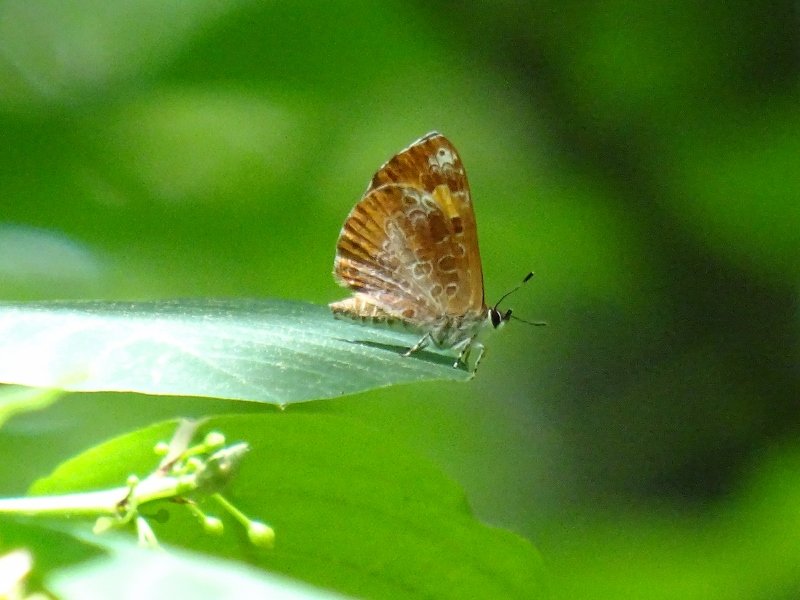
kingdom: Animalia
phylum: Arthropoda
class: Insecta
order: Lepidoptera
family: Lycaenidae
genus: Feniseca
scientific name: Feniseca tarquinius
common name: Harvester
